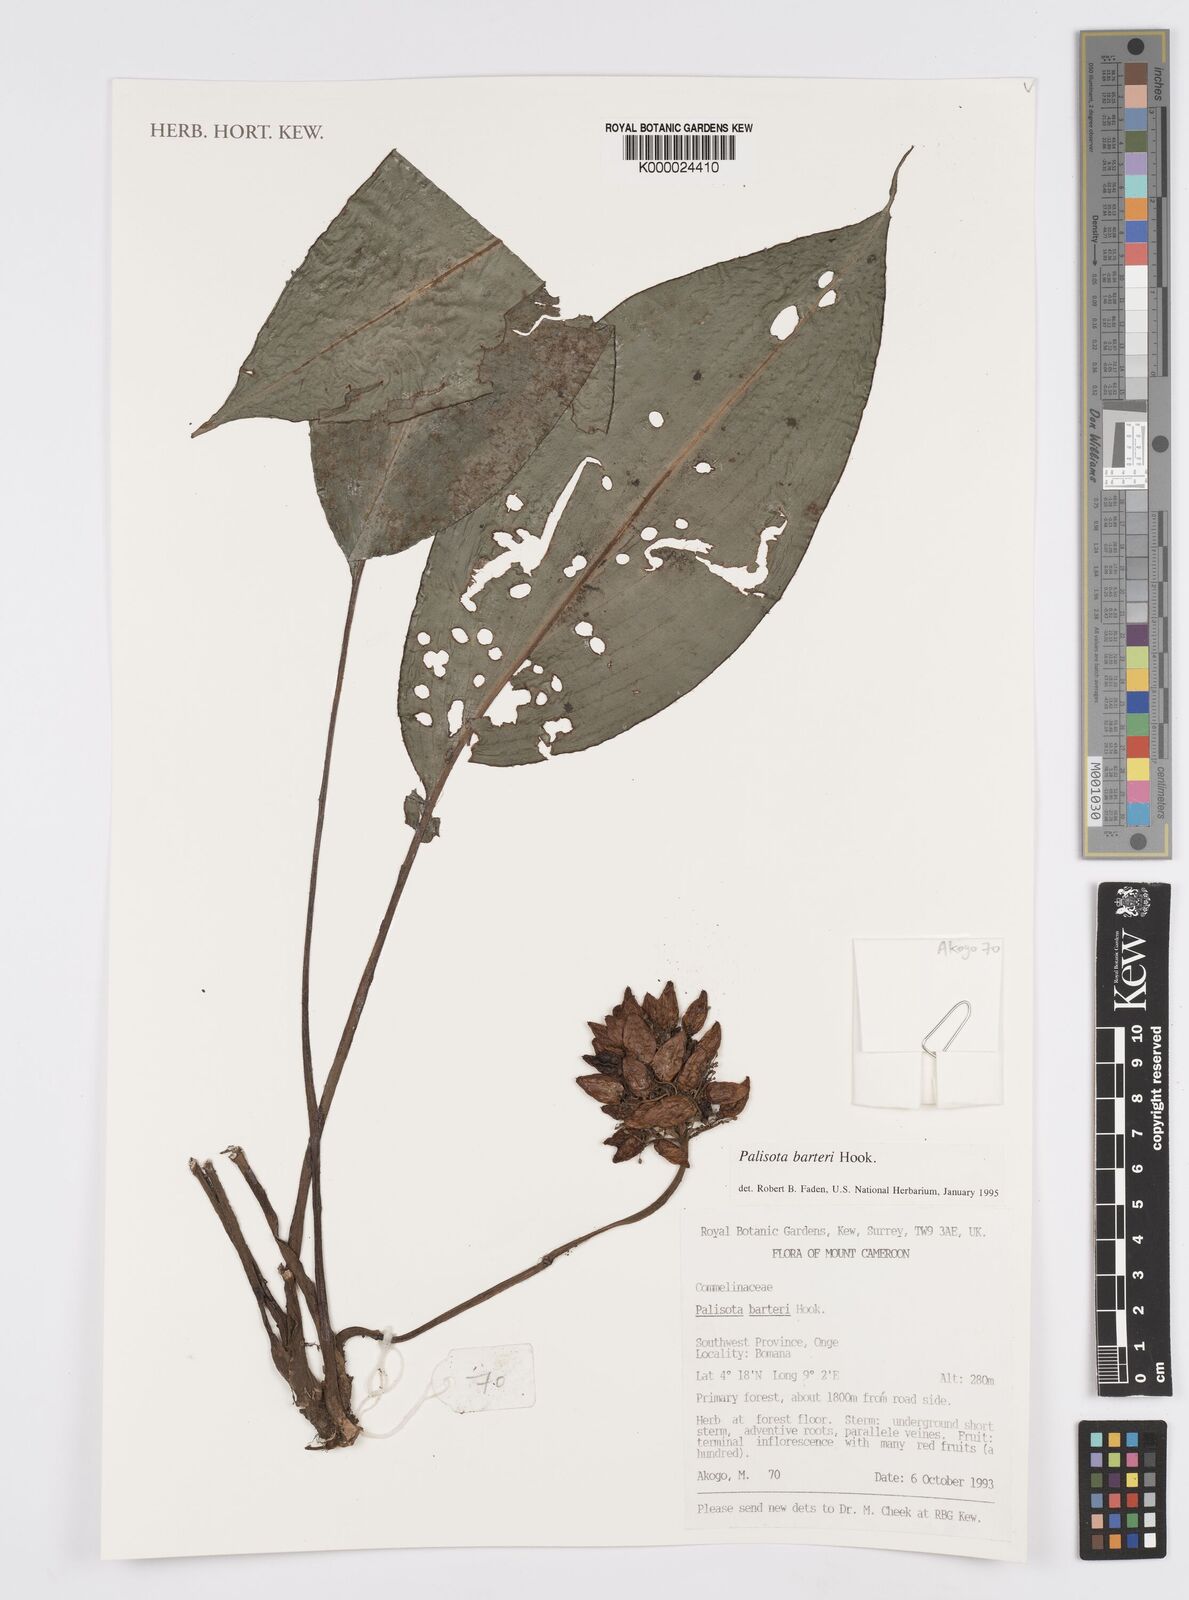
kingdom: Plantae
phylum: Tracheophyta
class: Liliopsida
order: Commelinales
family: Commelinaceae
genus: Palisota
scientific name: Palisota barteri
